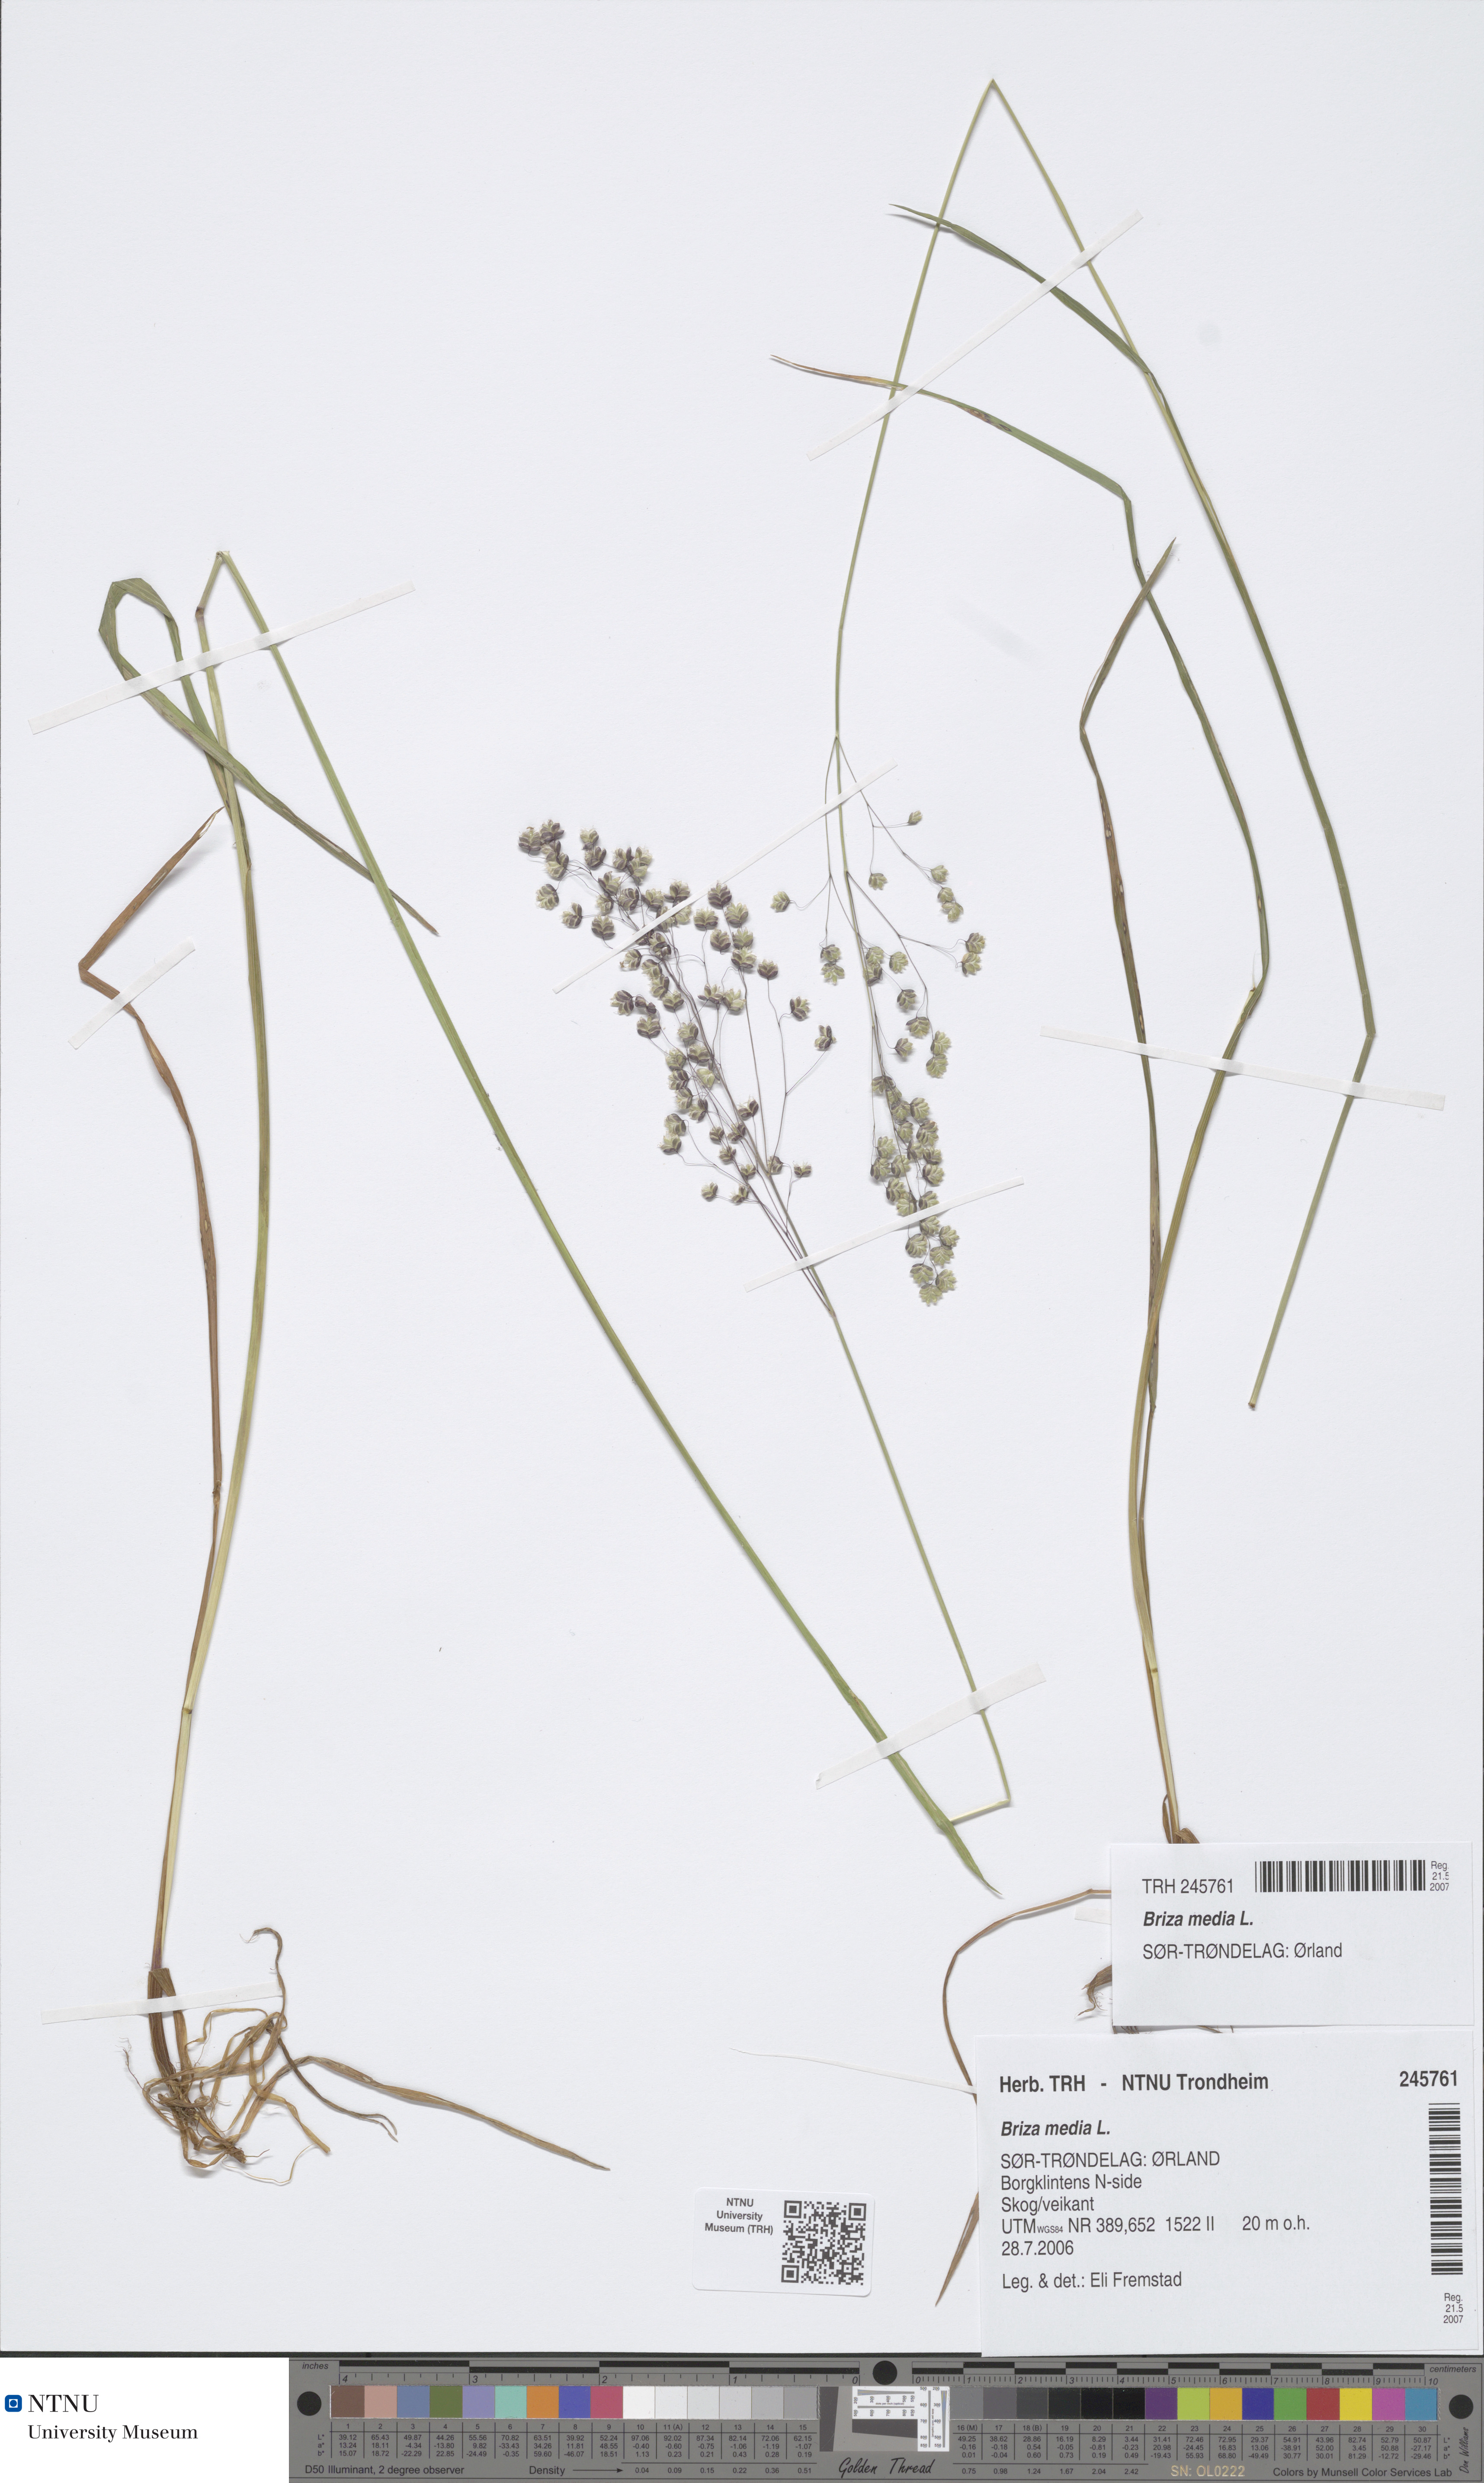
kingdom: Plantae
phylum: Tracheophyta
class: Liliopsida
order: Poales
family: Poaceae
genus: Briza
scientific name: Briza media
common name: Quaking grass
